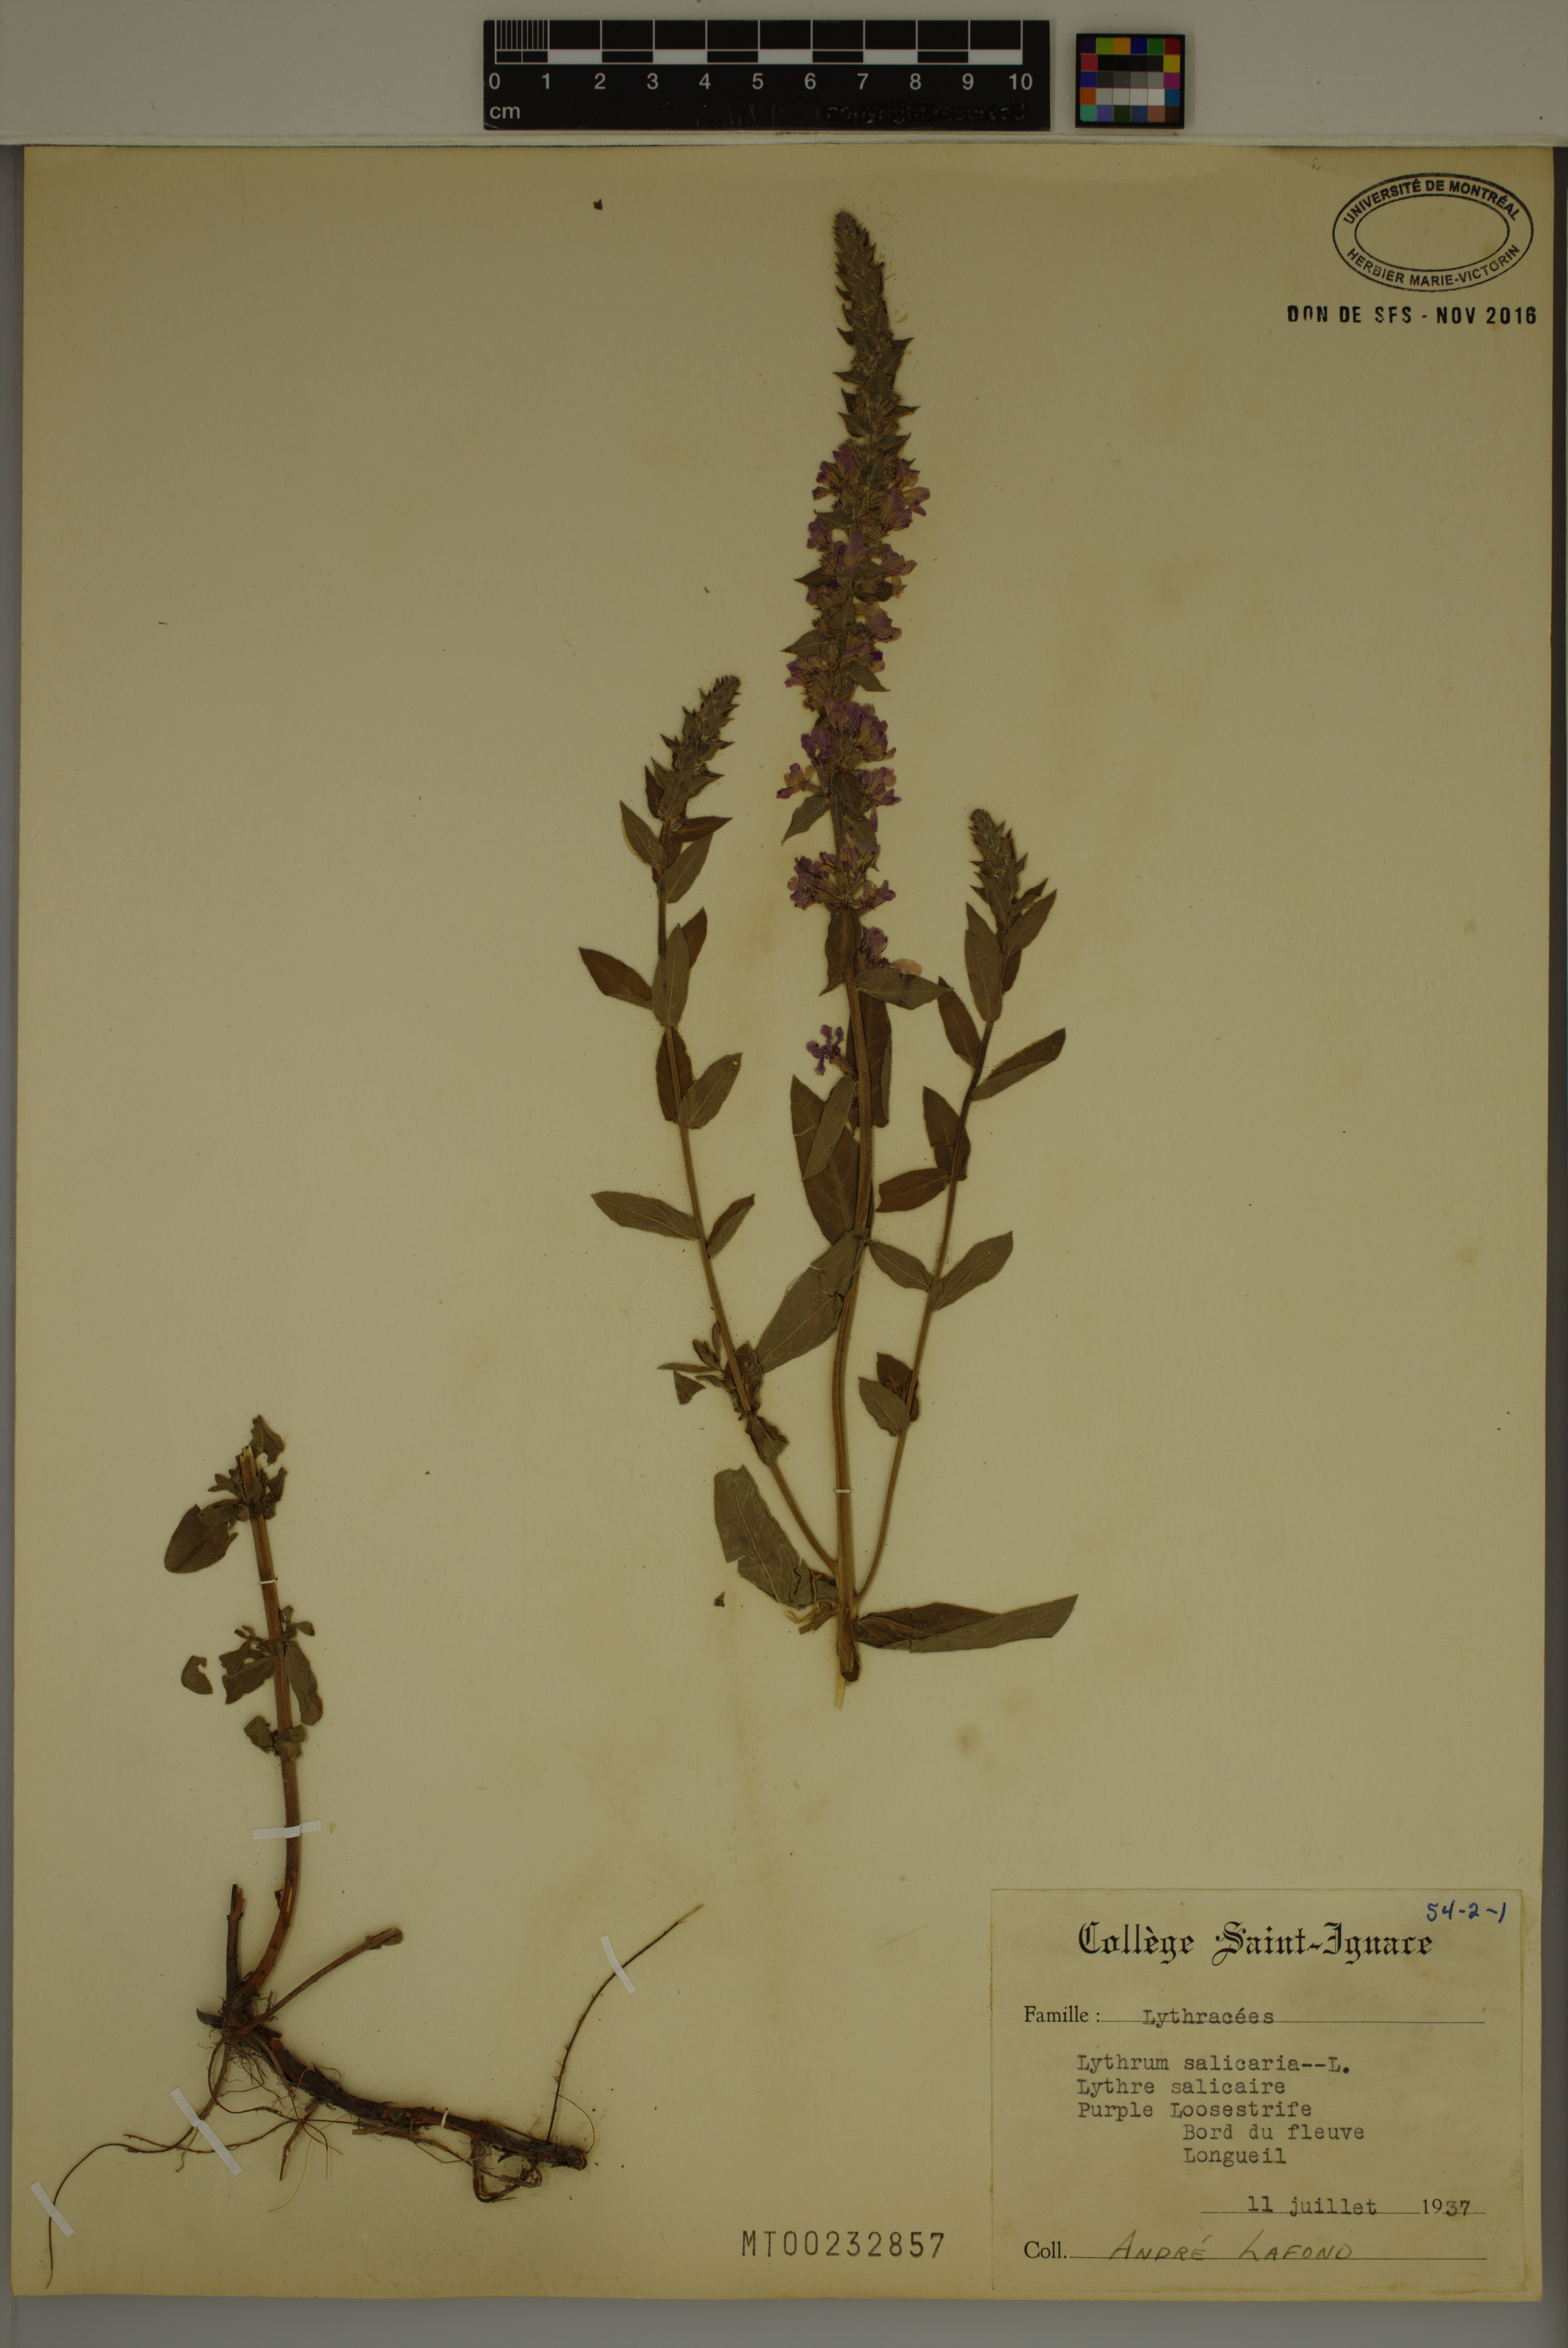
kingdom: Plantae
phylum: Tracheophyta
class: Magnoliopsida
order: Myrtales
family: Lythraceae
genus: Lythrum
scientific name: Lythrum salicaria
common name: Purple loosestrife
